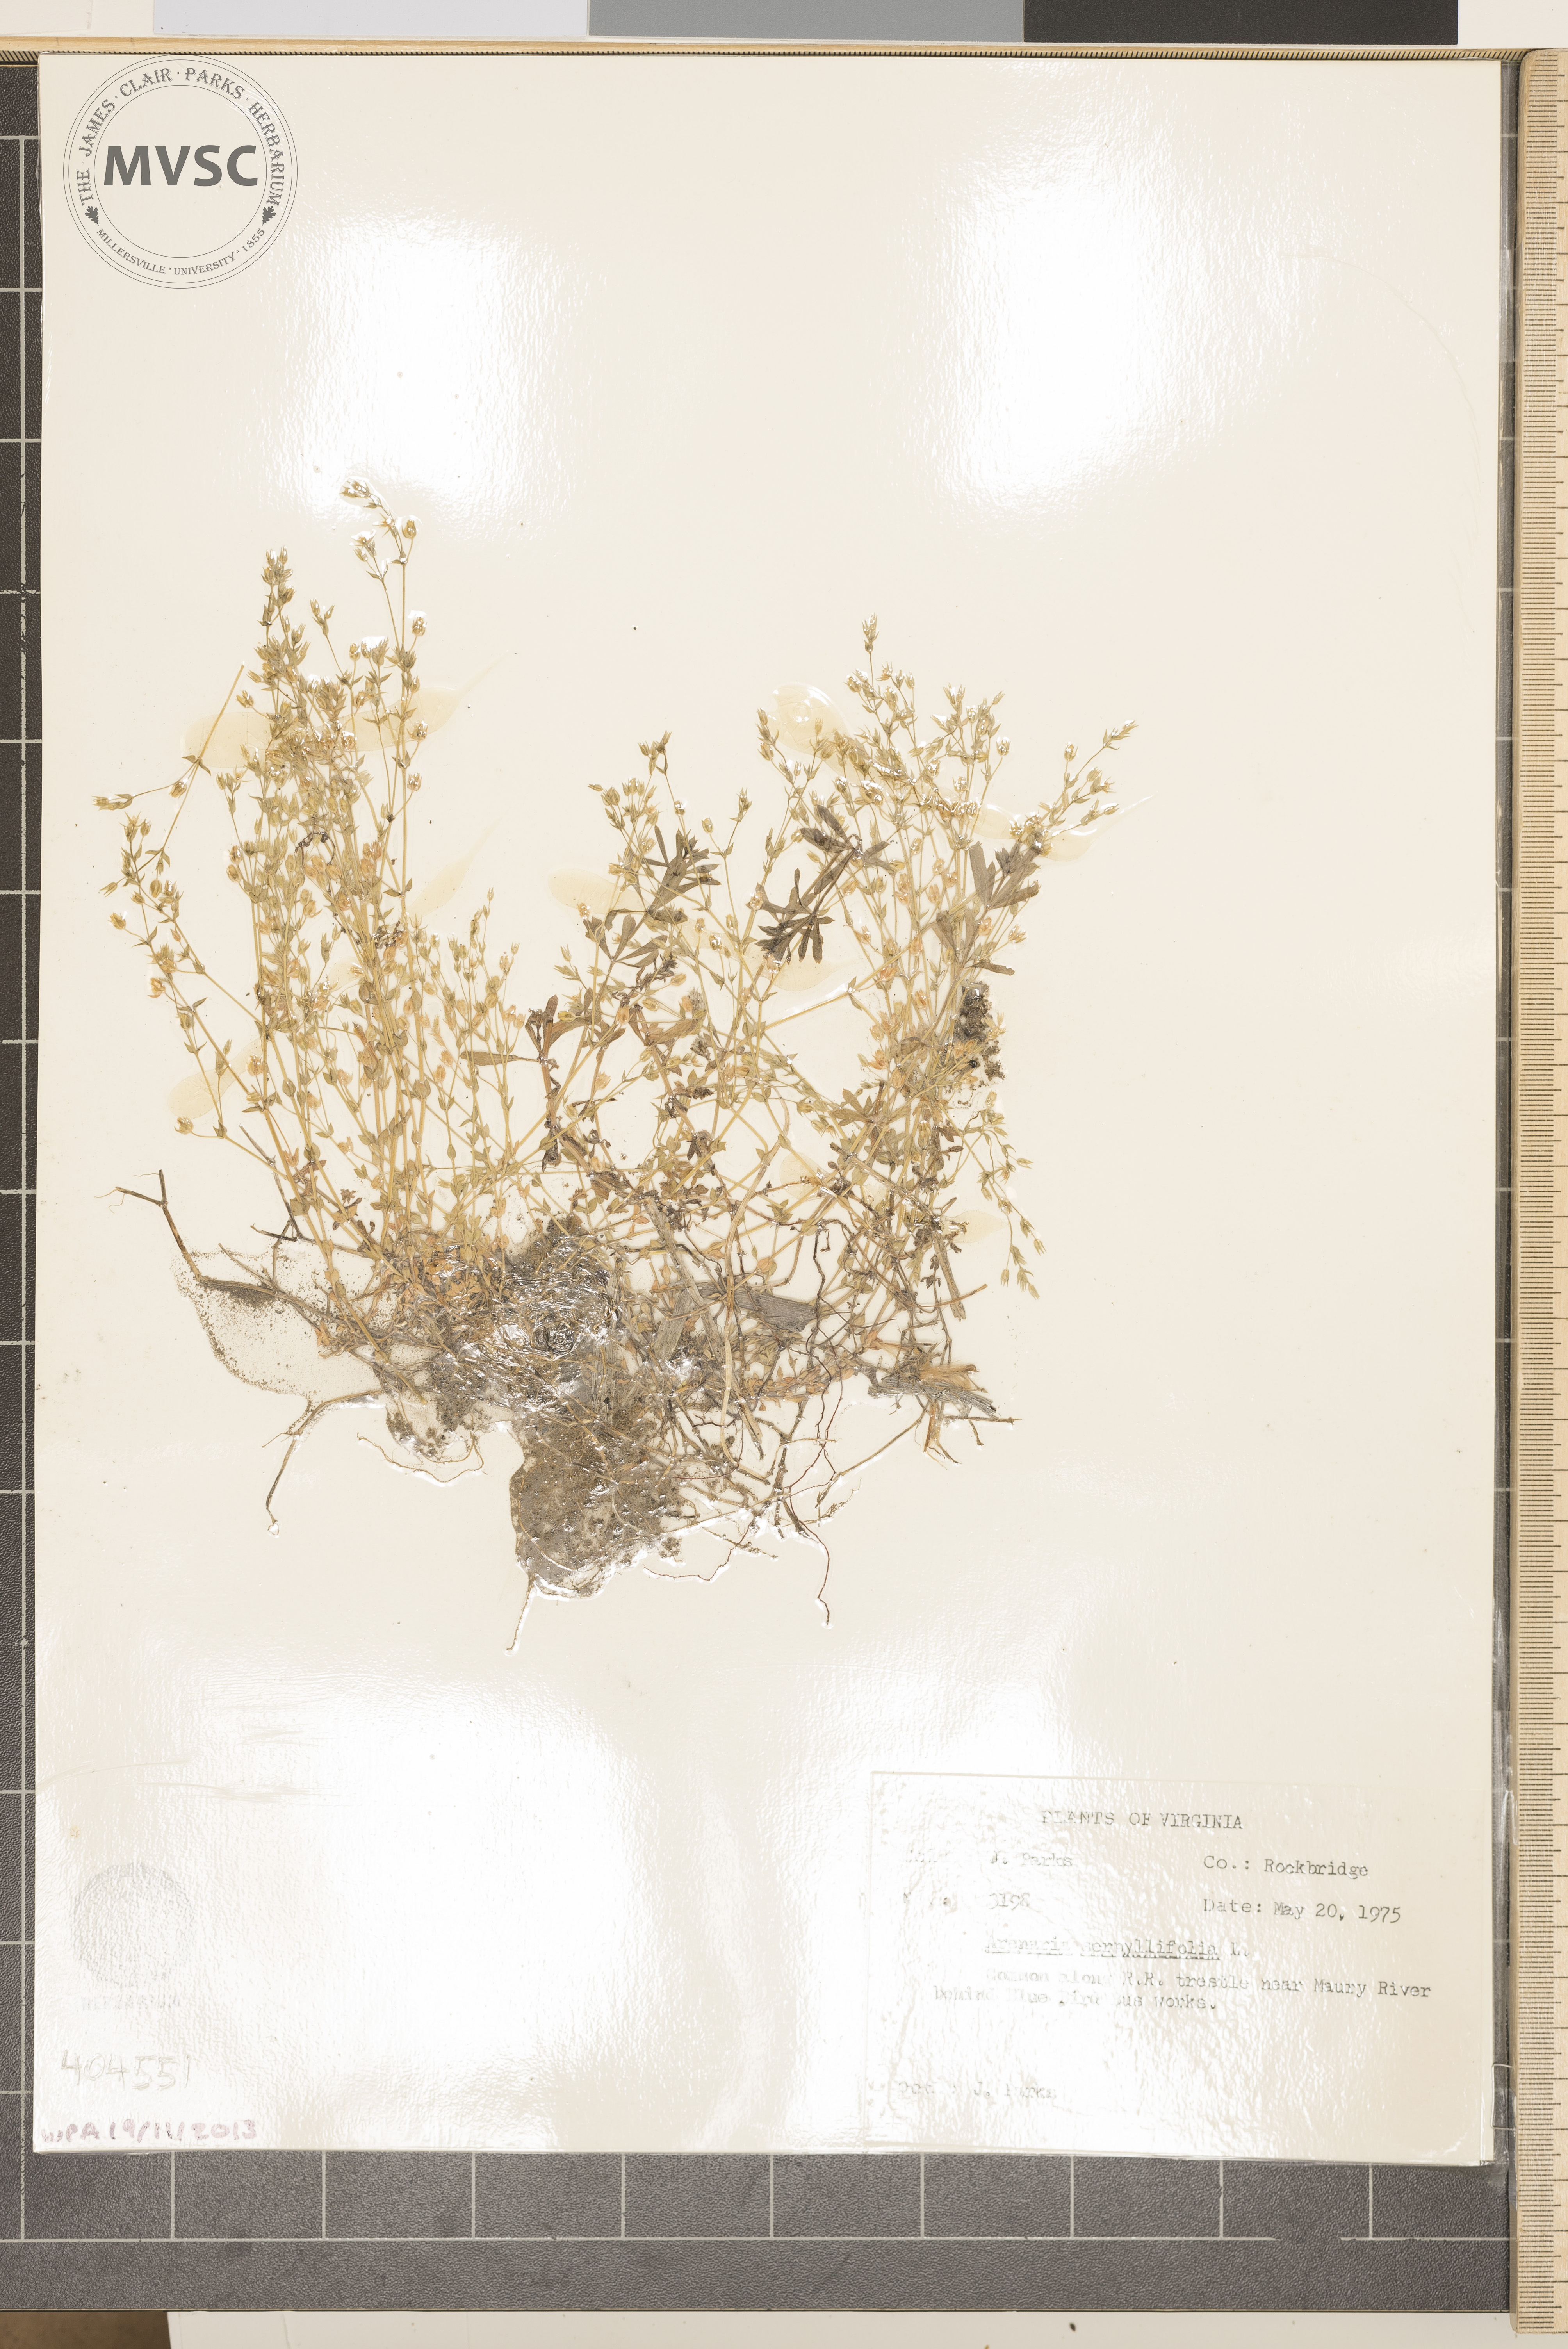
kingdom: Plantae
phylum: Tracheophyta
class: Magnoliopsida
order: Caryophyllales
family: Caryophyllaceae
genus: Arenaria
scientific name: Arenaria serpyllifolia
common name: Thyme-leaved sandwort
